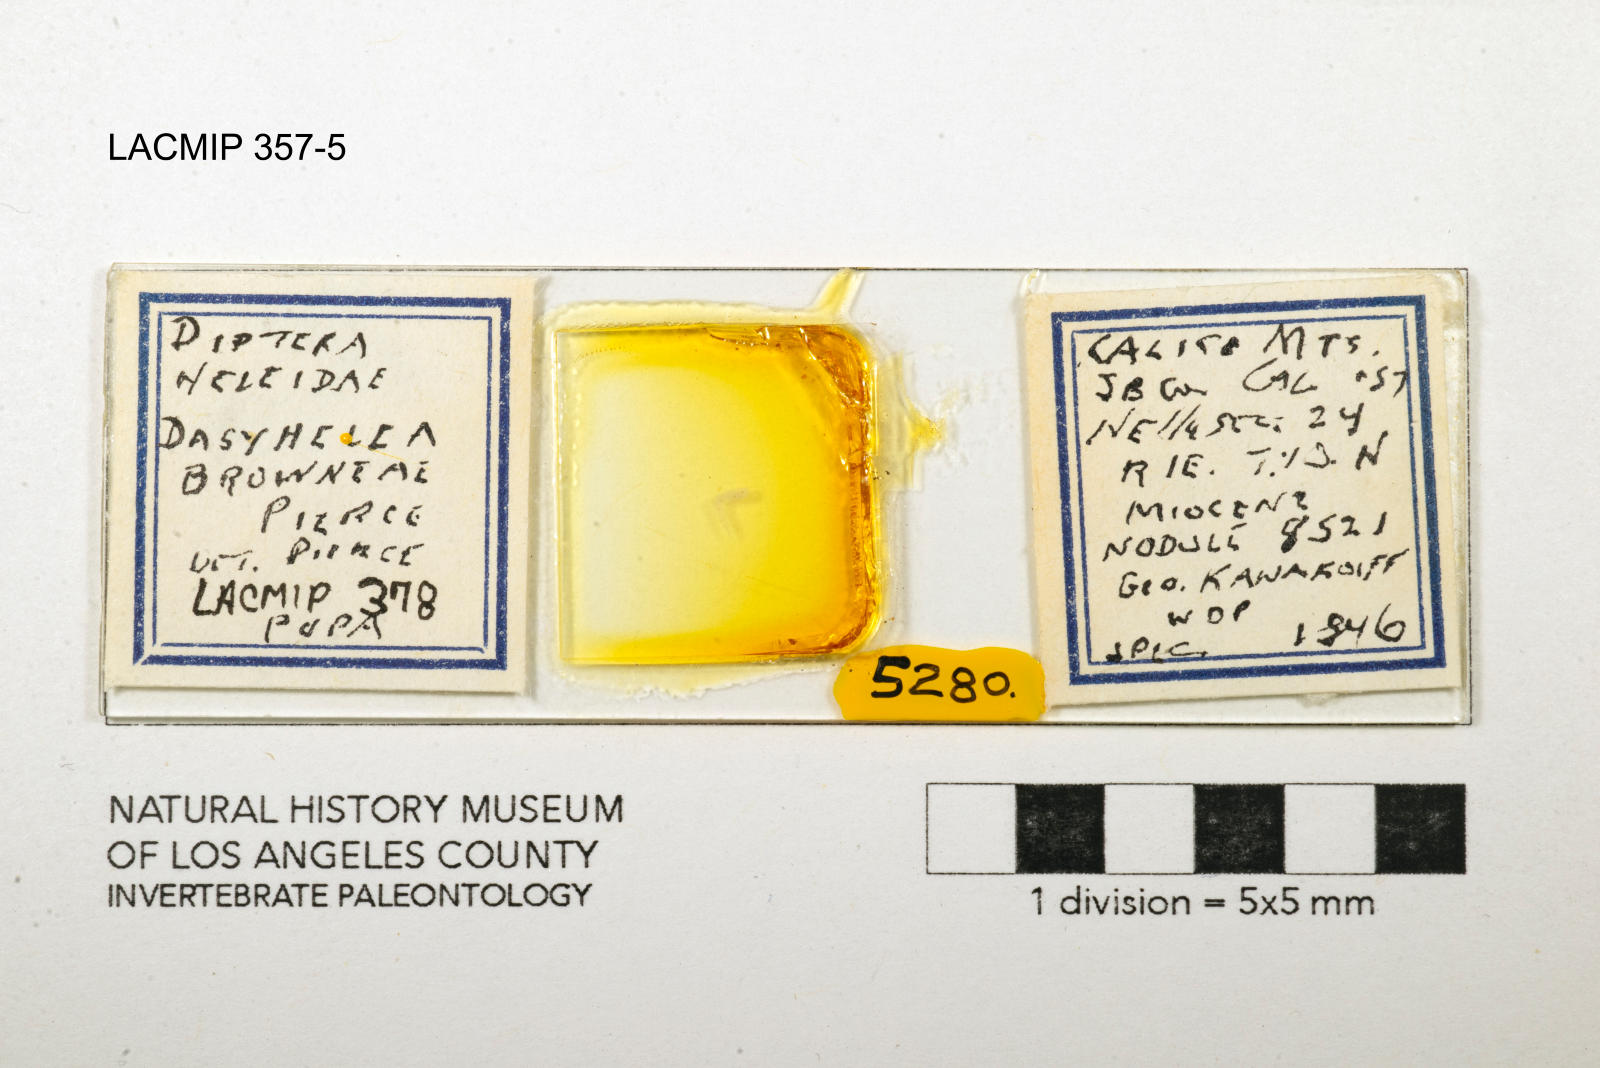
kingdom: Animalia
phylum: Arthropoda
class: Insecta
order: Diptera
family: Ceratopogonidae
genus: Dasyhelea
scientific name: Dasyhelea browneae
